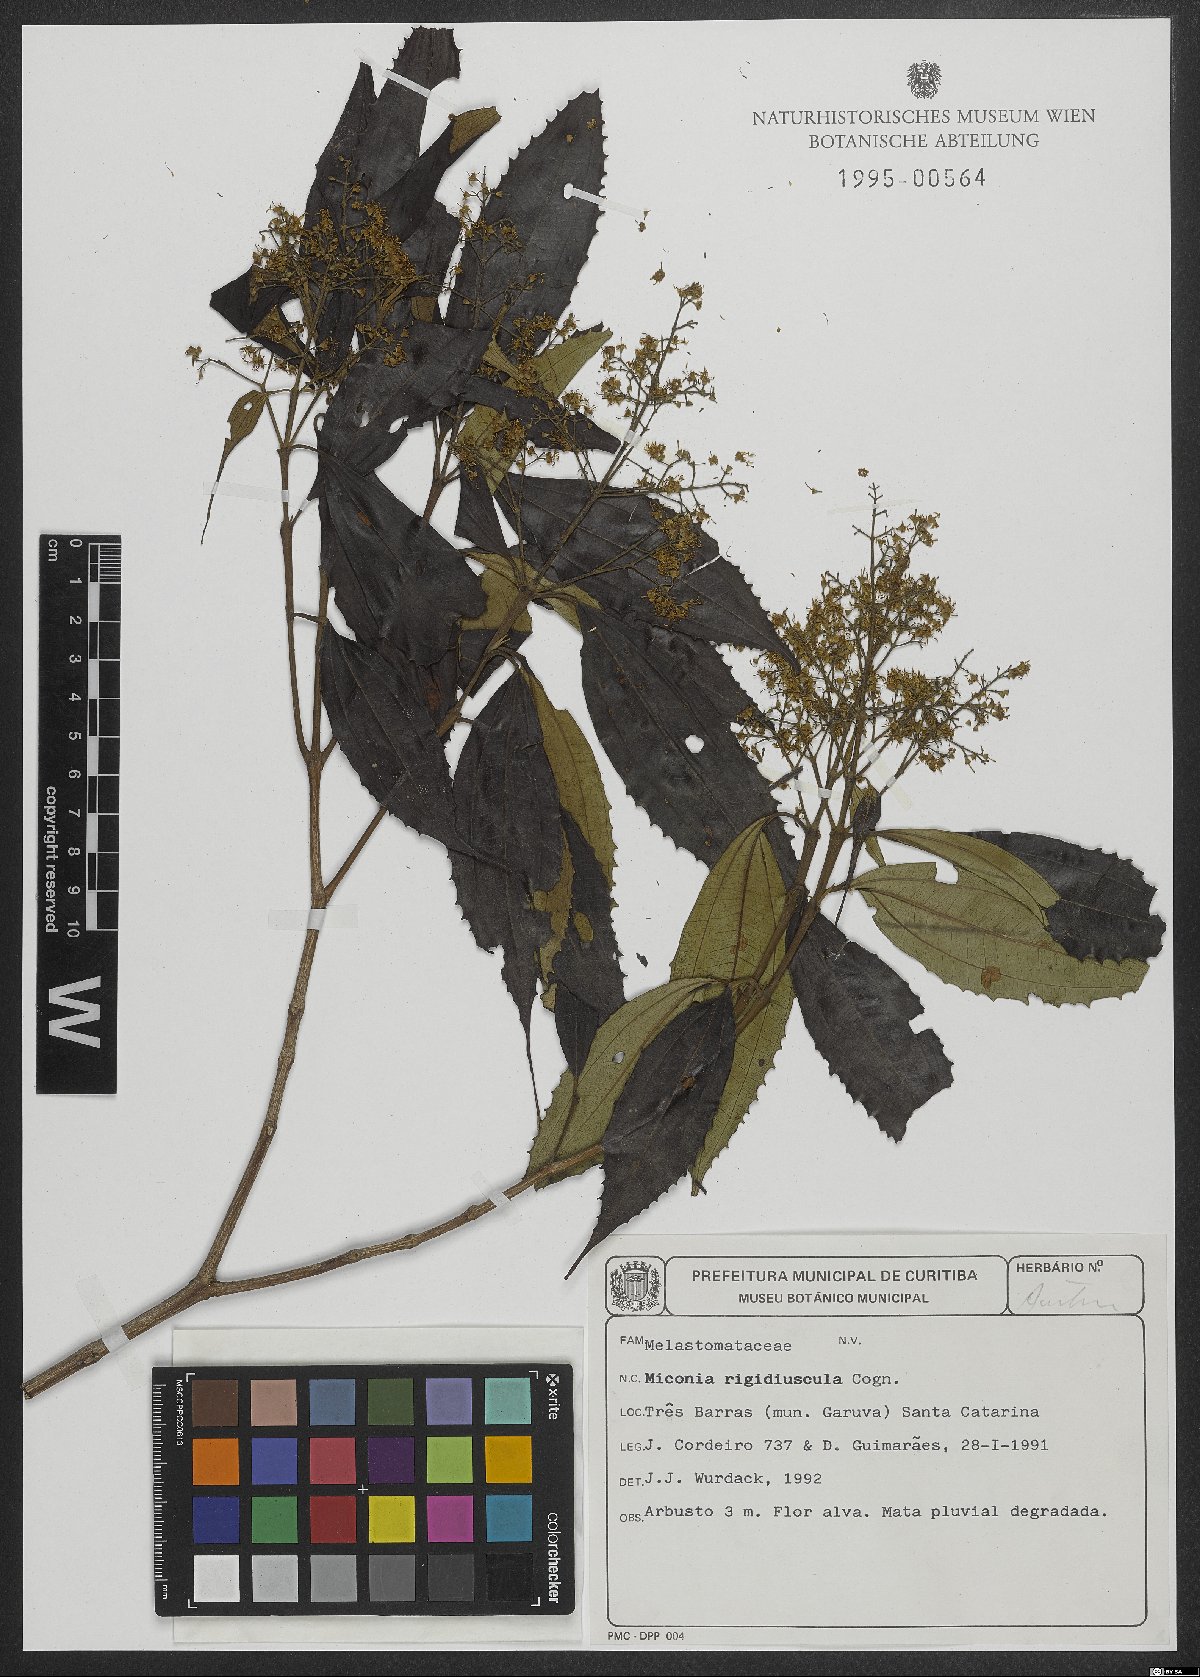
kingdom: Plantae
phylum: Tracheophyta
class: Magnoliopsida
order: Myrtales
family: Melastomataceae
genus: Miconia
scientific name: Miconia pusilliflora
